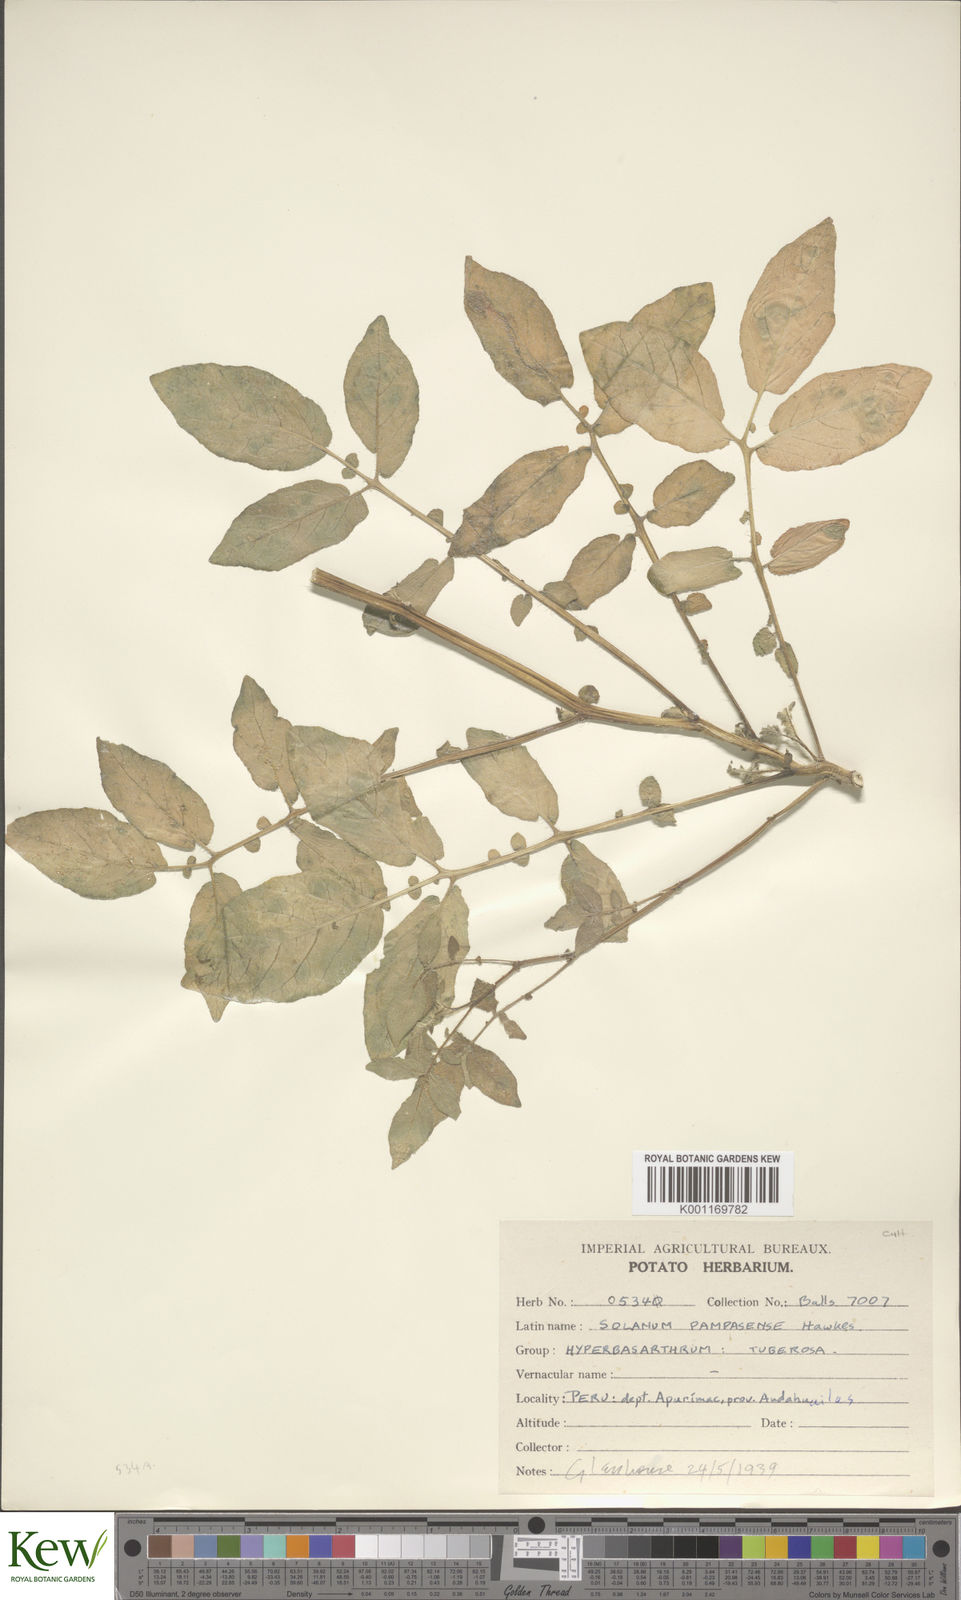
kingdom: Plantae
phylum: Tracheophyta
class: Magnoliopsida
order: Solanales
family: Solanaceae
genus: Solanum
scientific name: Solanum candolleanum
